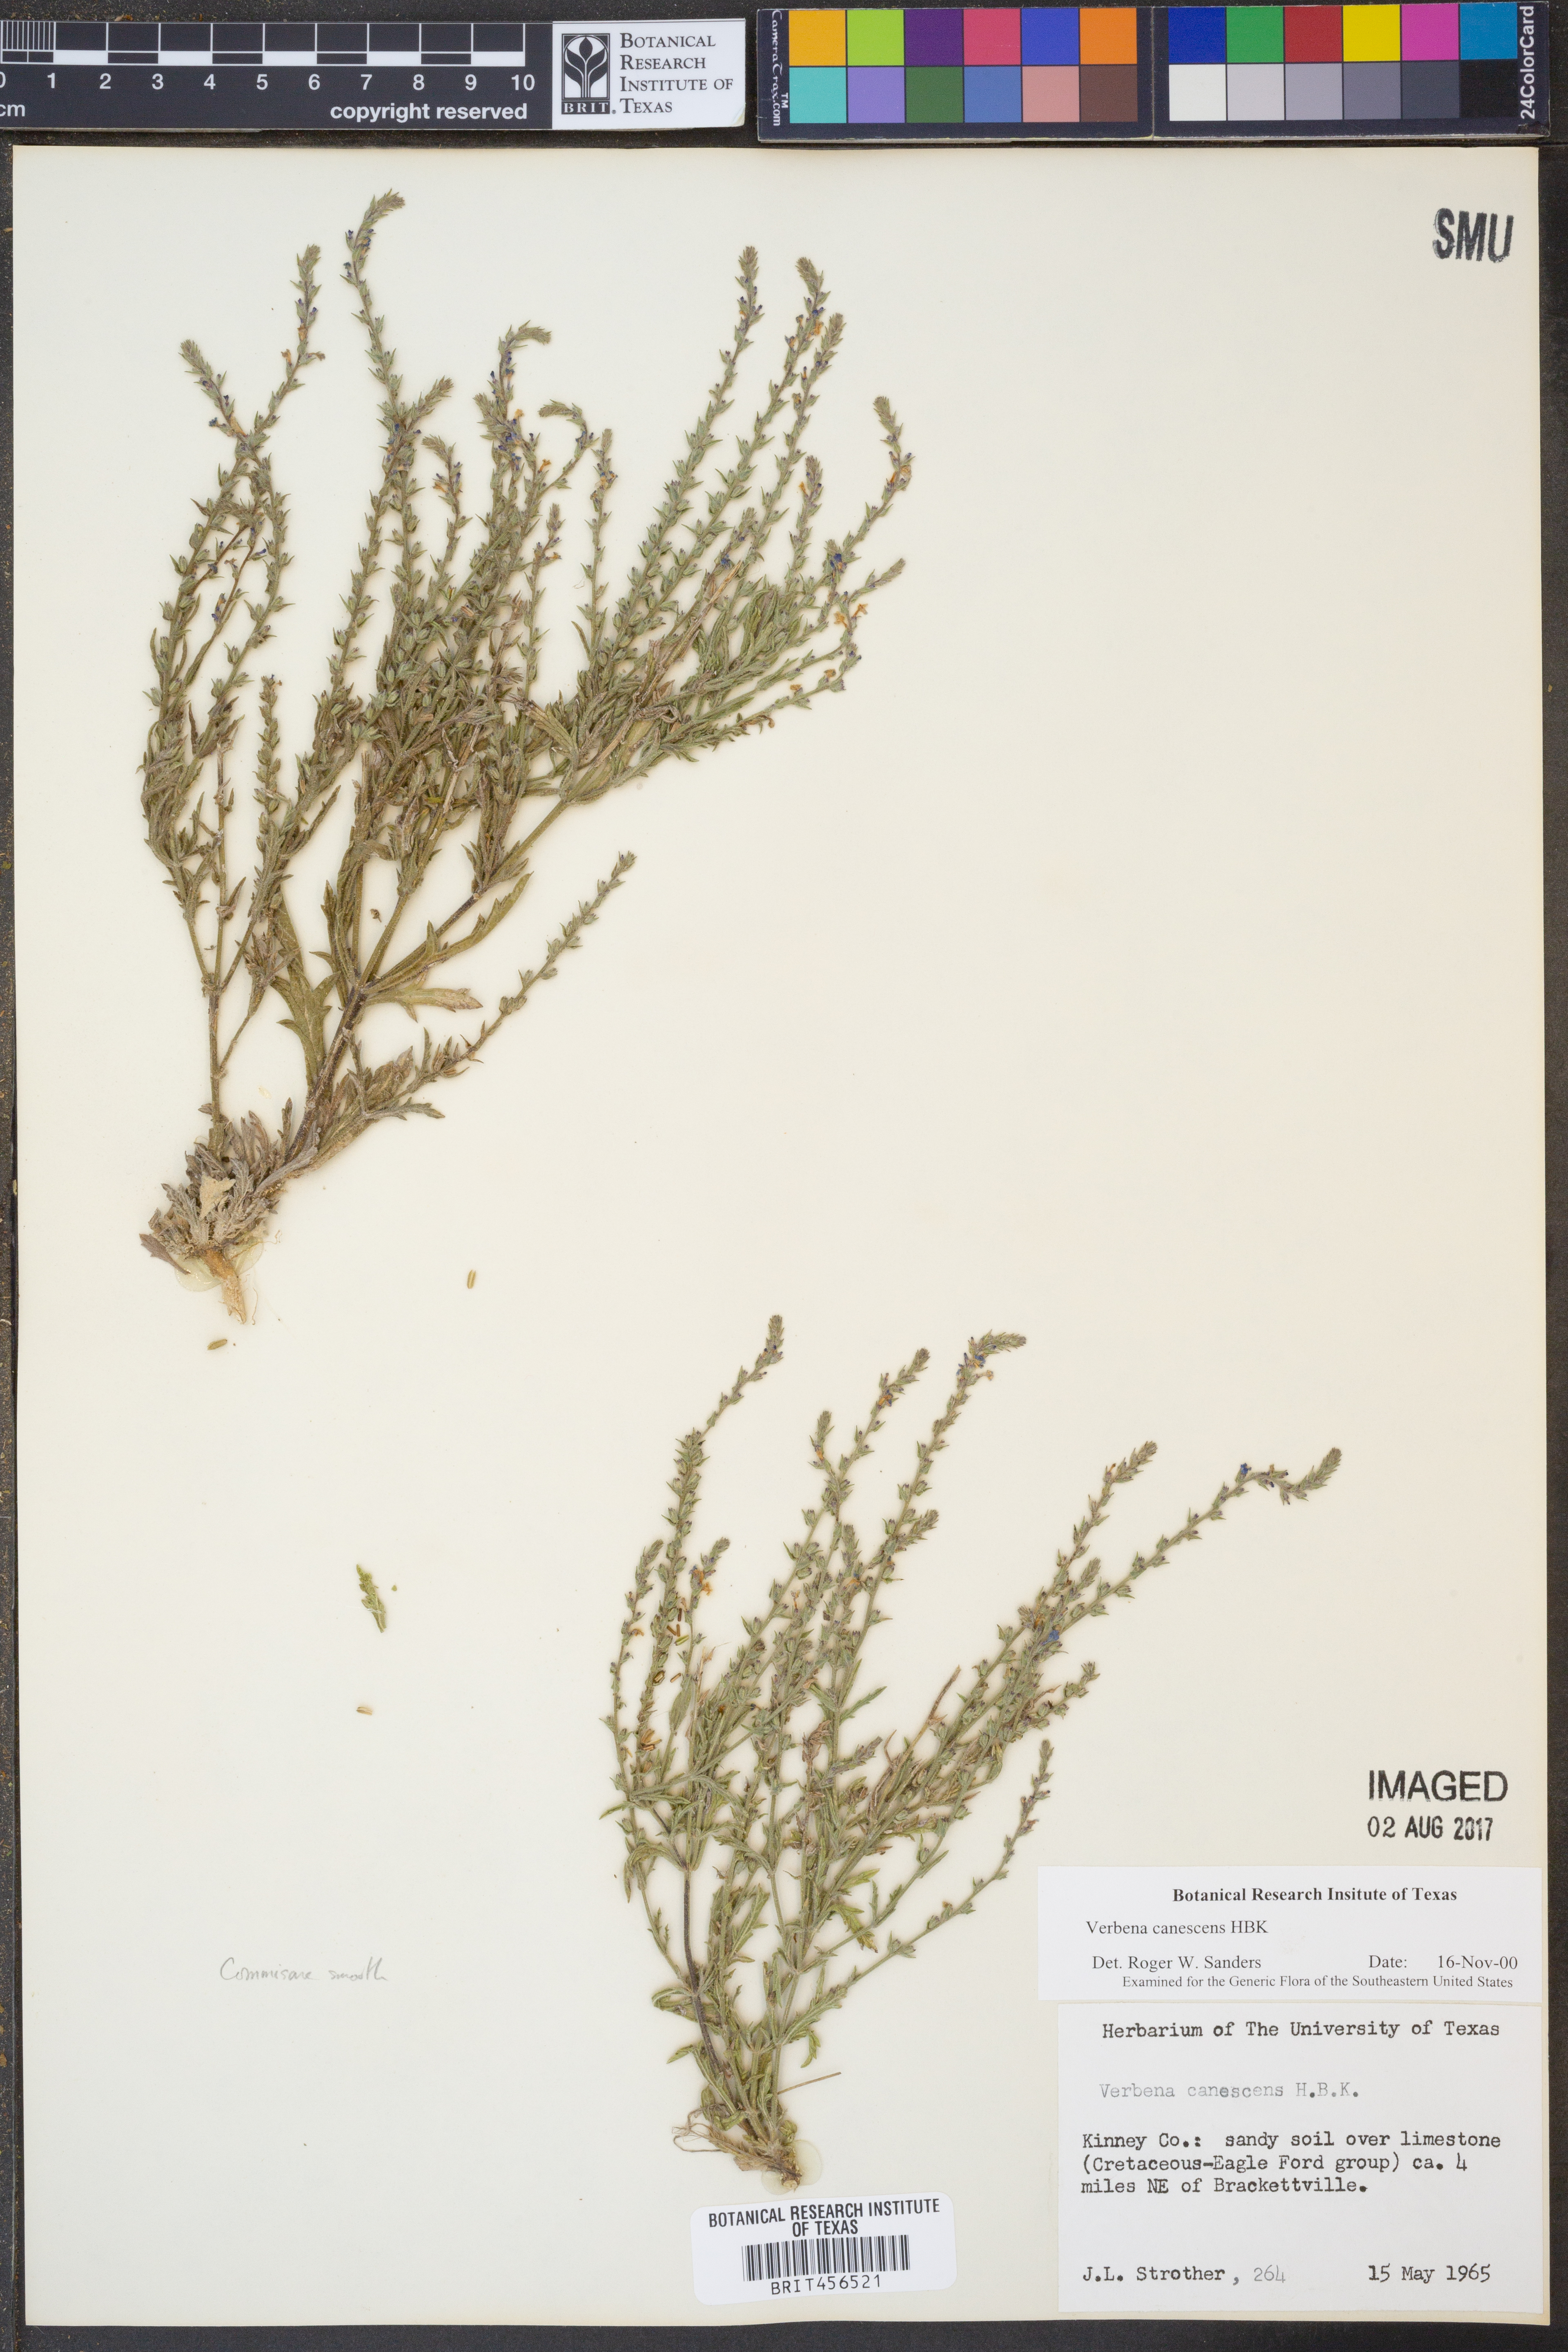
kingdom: Plantae
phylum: Tracheophyta
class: Magnoliopsida
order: Lamiales
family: Verbenaceae
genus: Verbena
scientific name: Verbena canescens
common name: Gray vervain
